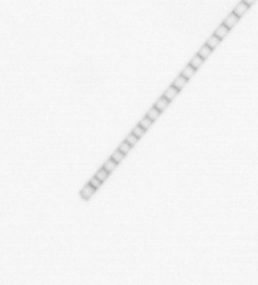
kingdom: Chromista
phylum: Ochrophyta
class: Bacillariophyceae
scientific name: Bacillariophyceae
